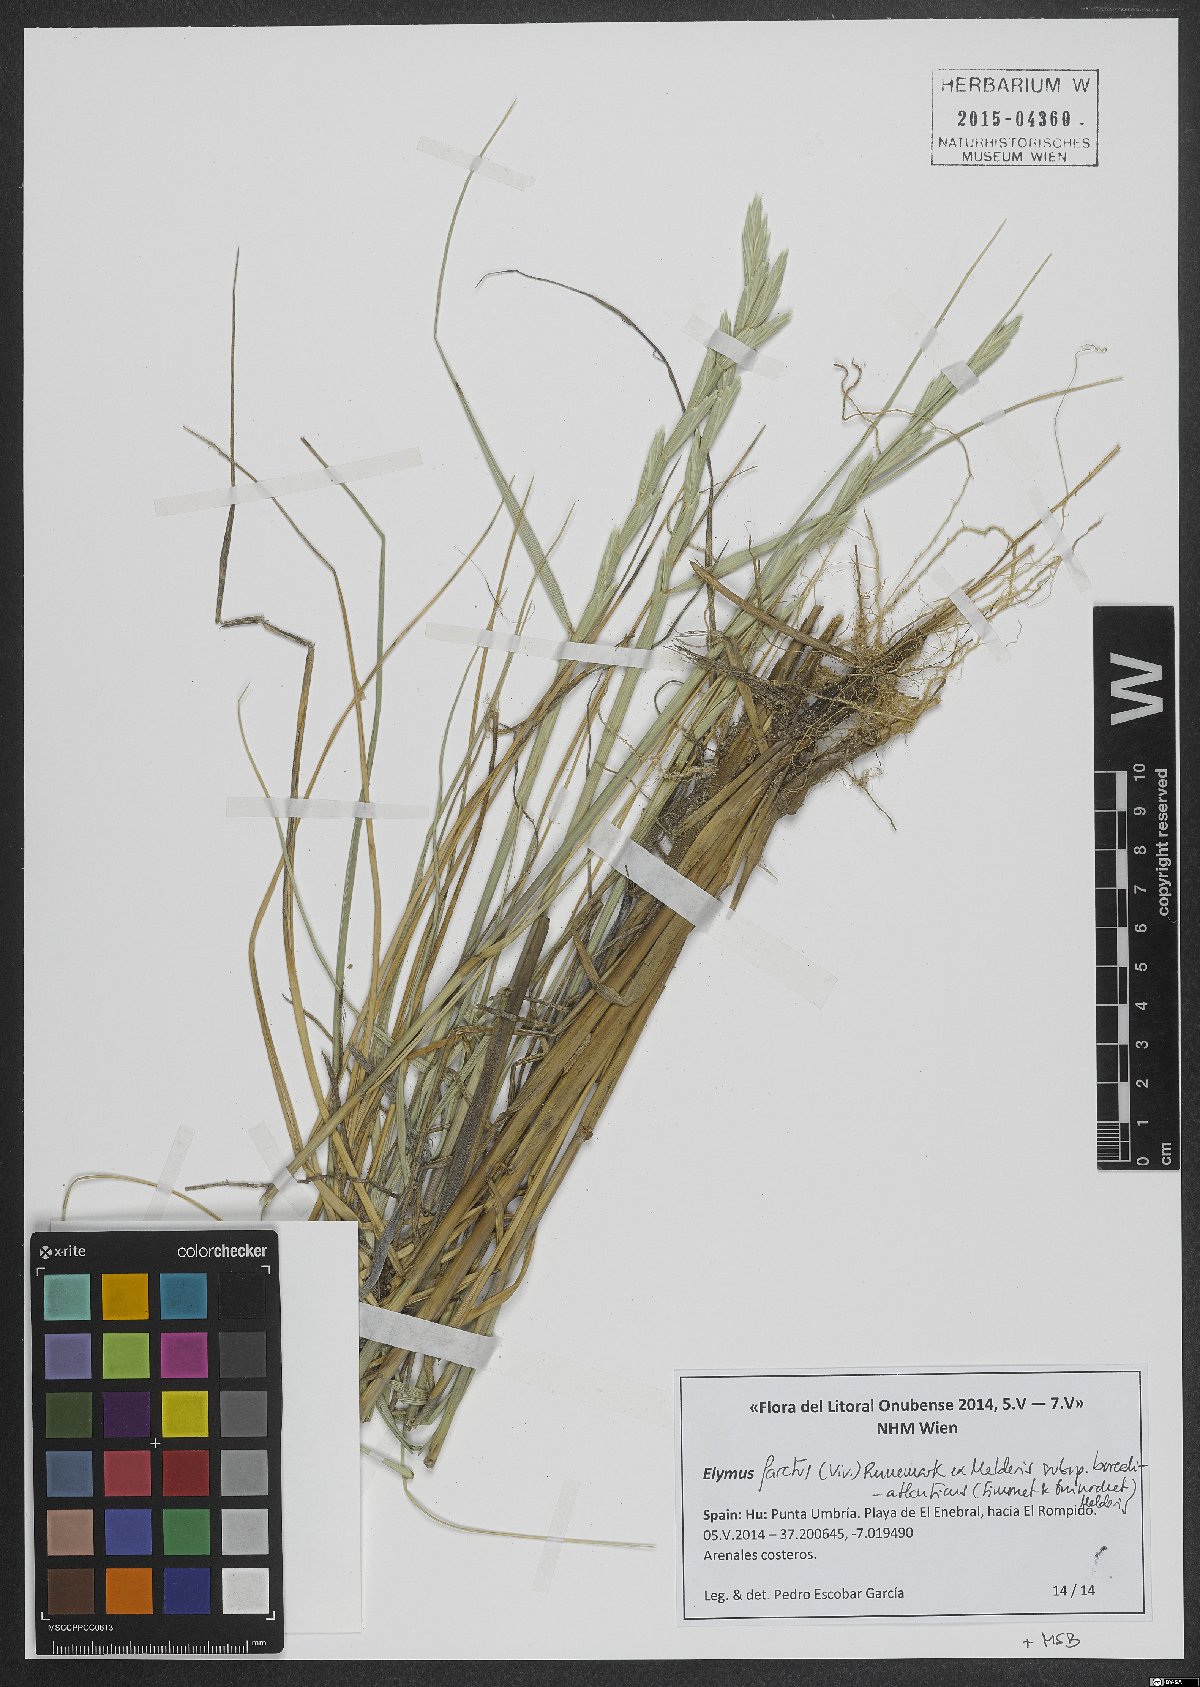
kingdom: Plantae
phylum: Tracheophyta
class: Liliopsida
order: Poales
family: Poaceae
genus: Thinopyrum
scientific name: Thinopyrum junceiforme
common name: Sea couch
